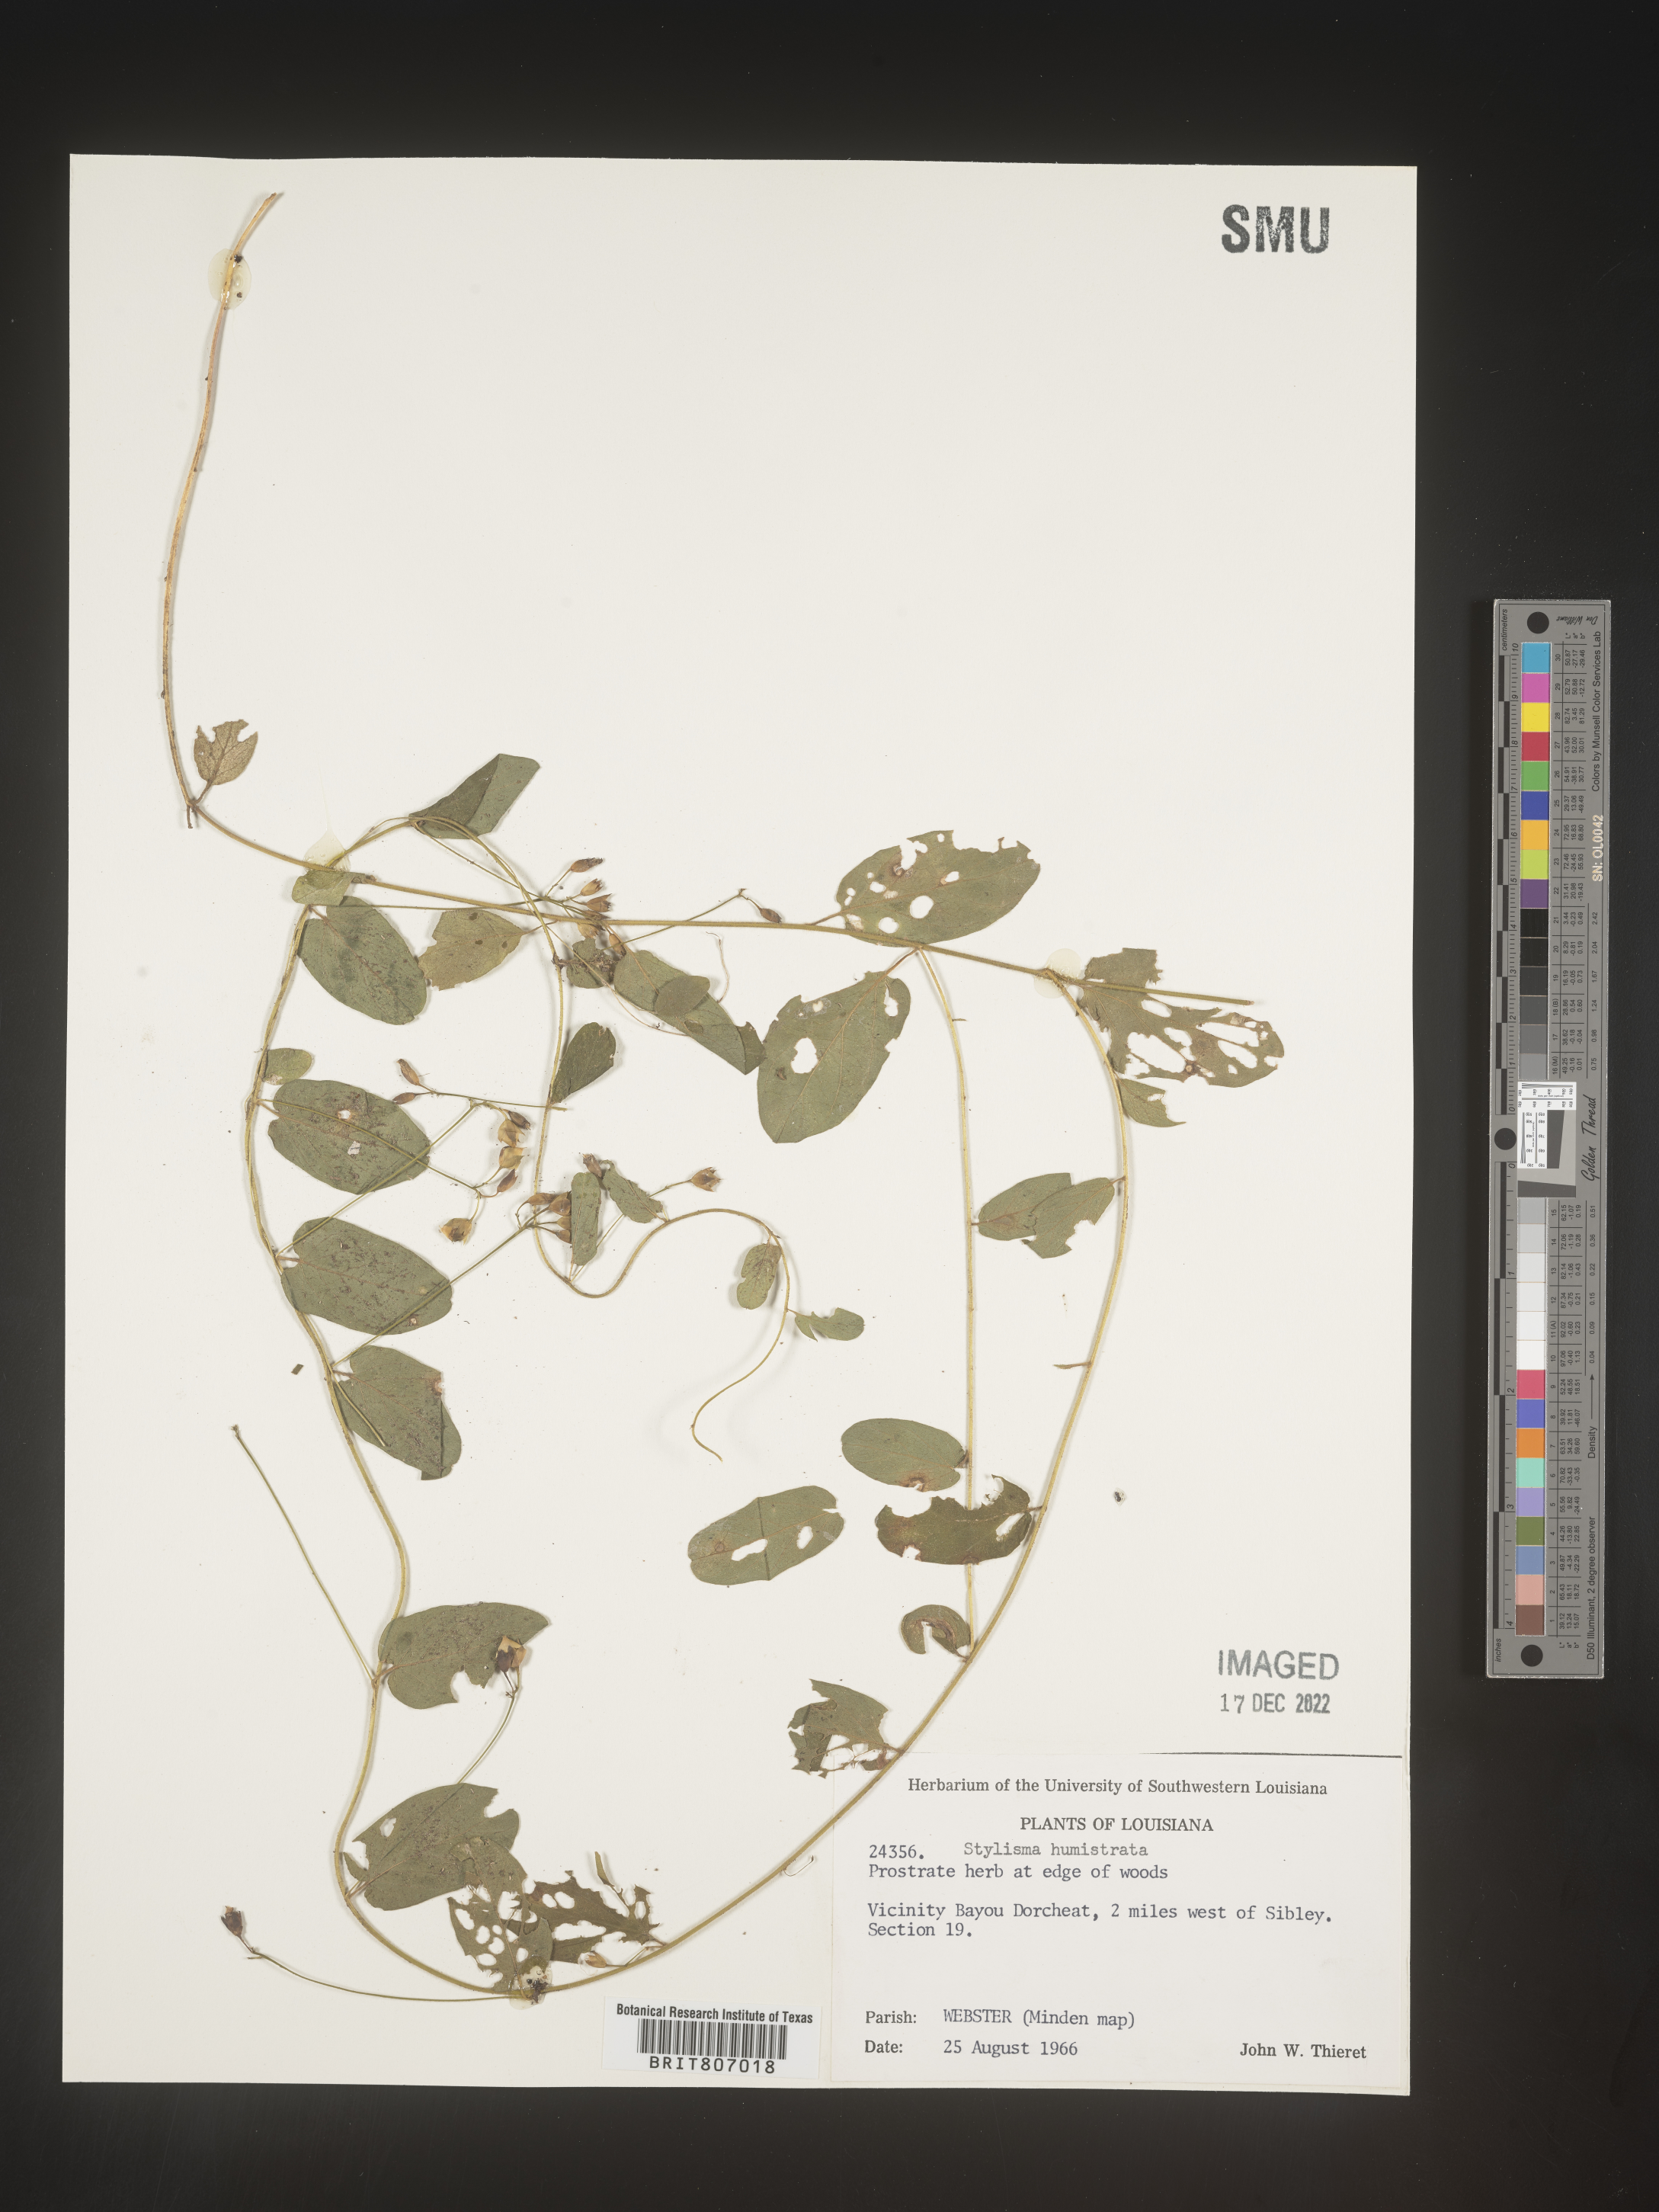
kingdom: Plantae
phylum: Tracheophyta
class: Magnoliopsida
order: Solanales
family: Convolvulaceae
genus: Stylisma
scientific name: Stylisma humistrata
